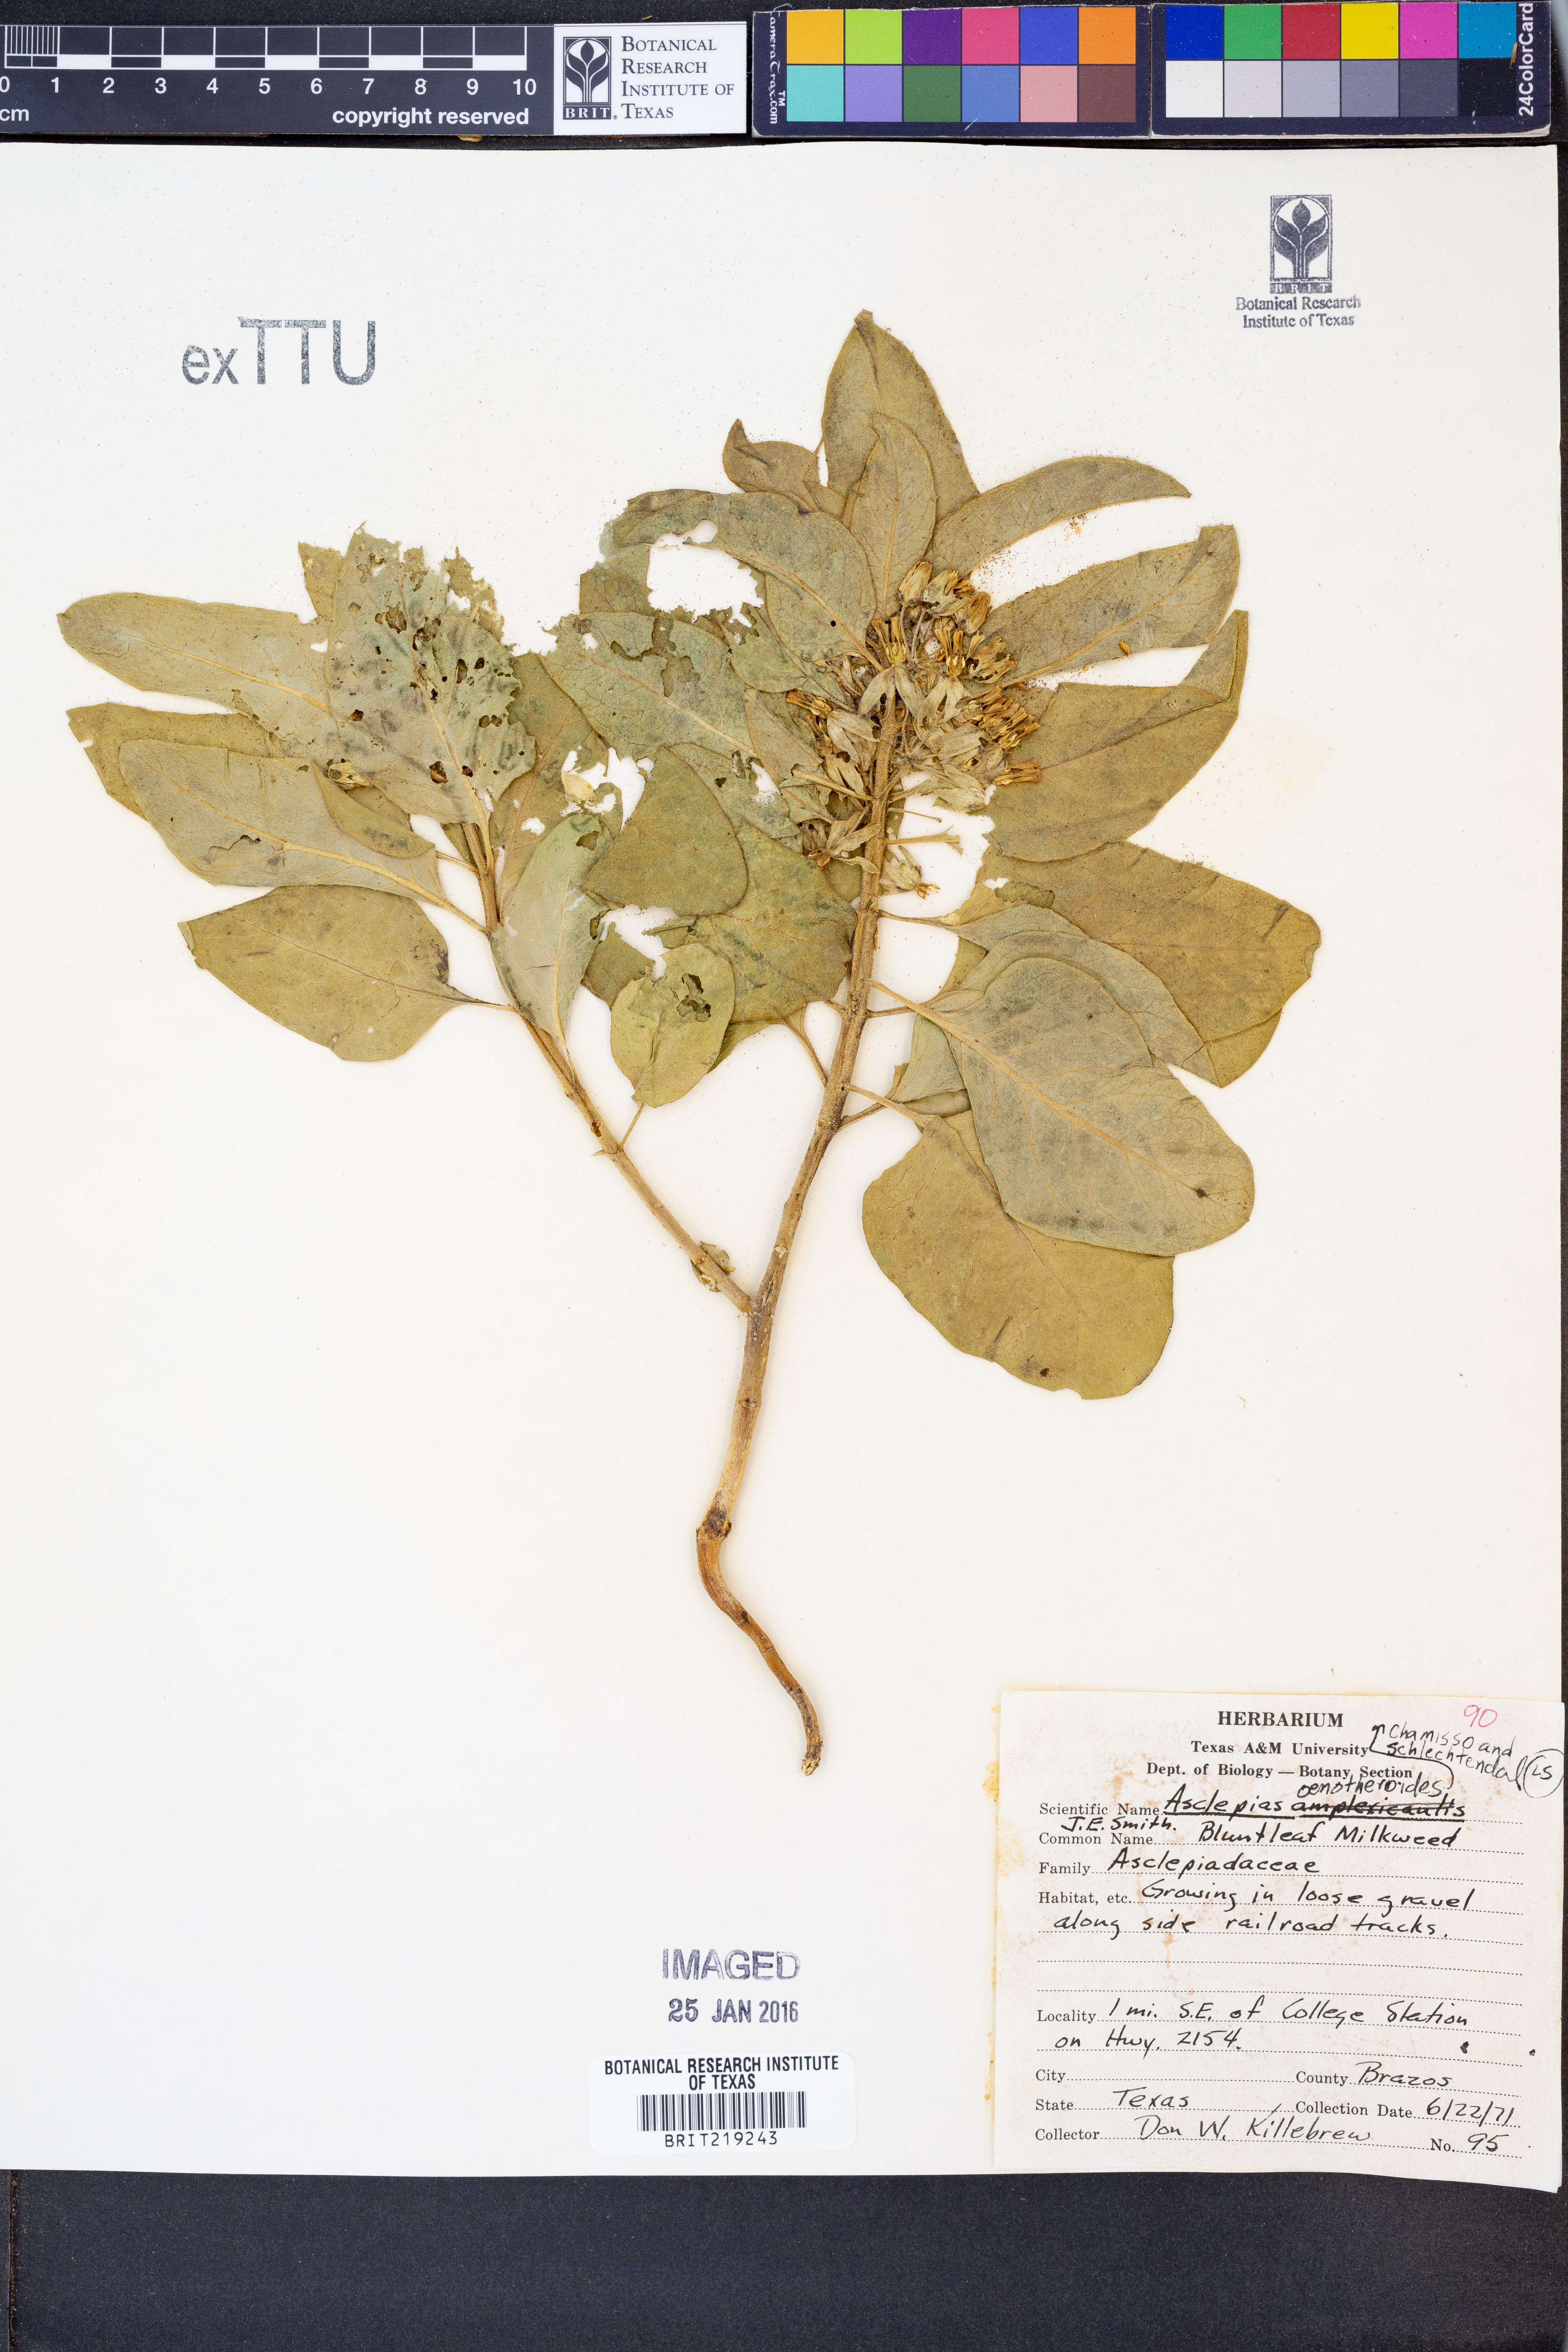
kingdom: Plantae
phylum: Tracheophyta
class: Magnoliopsida
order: Gentianales
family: Apocynaceae
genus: Asclepias
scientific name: Asclepias oenotheroides
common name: Zizotes milkweed
